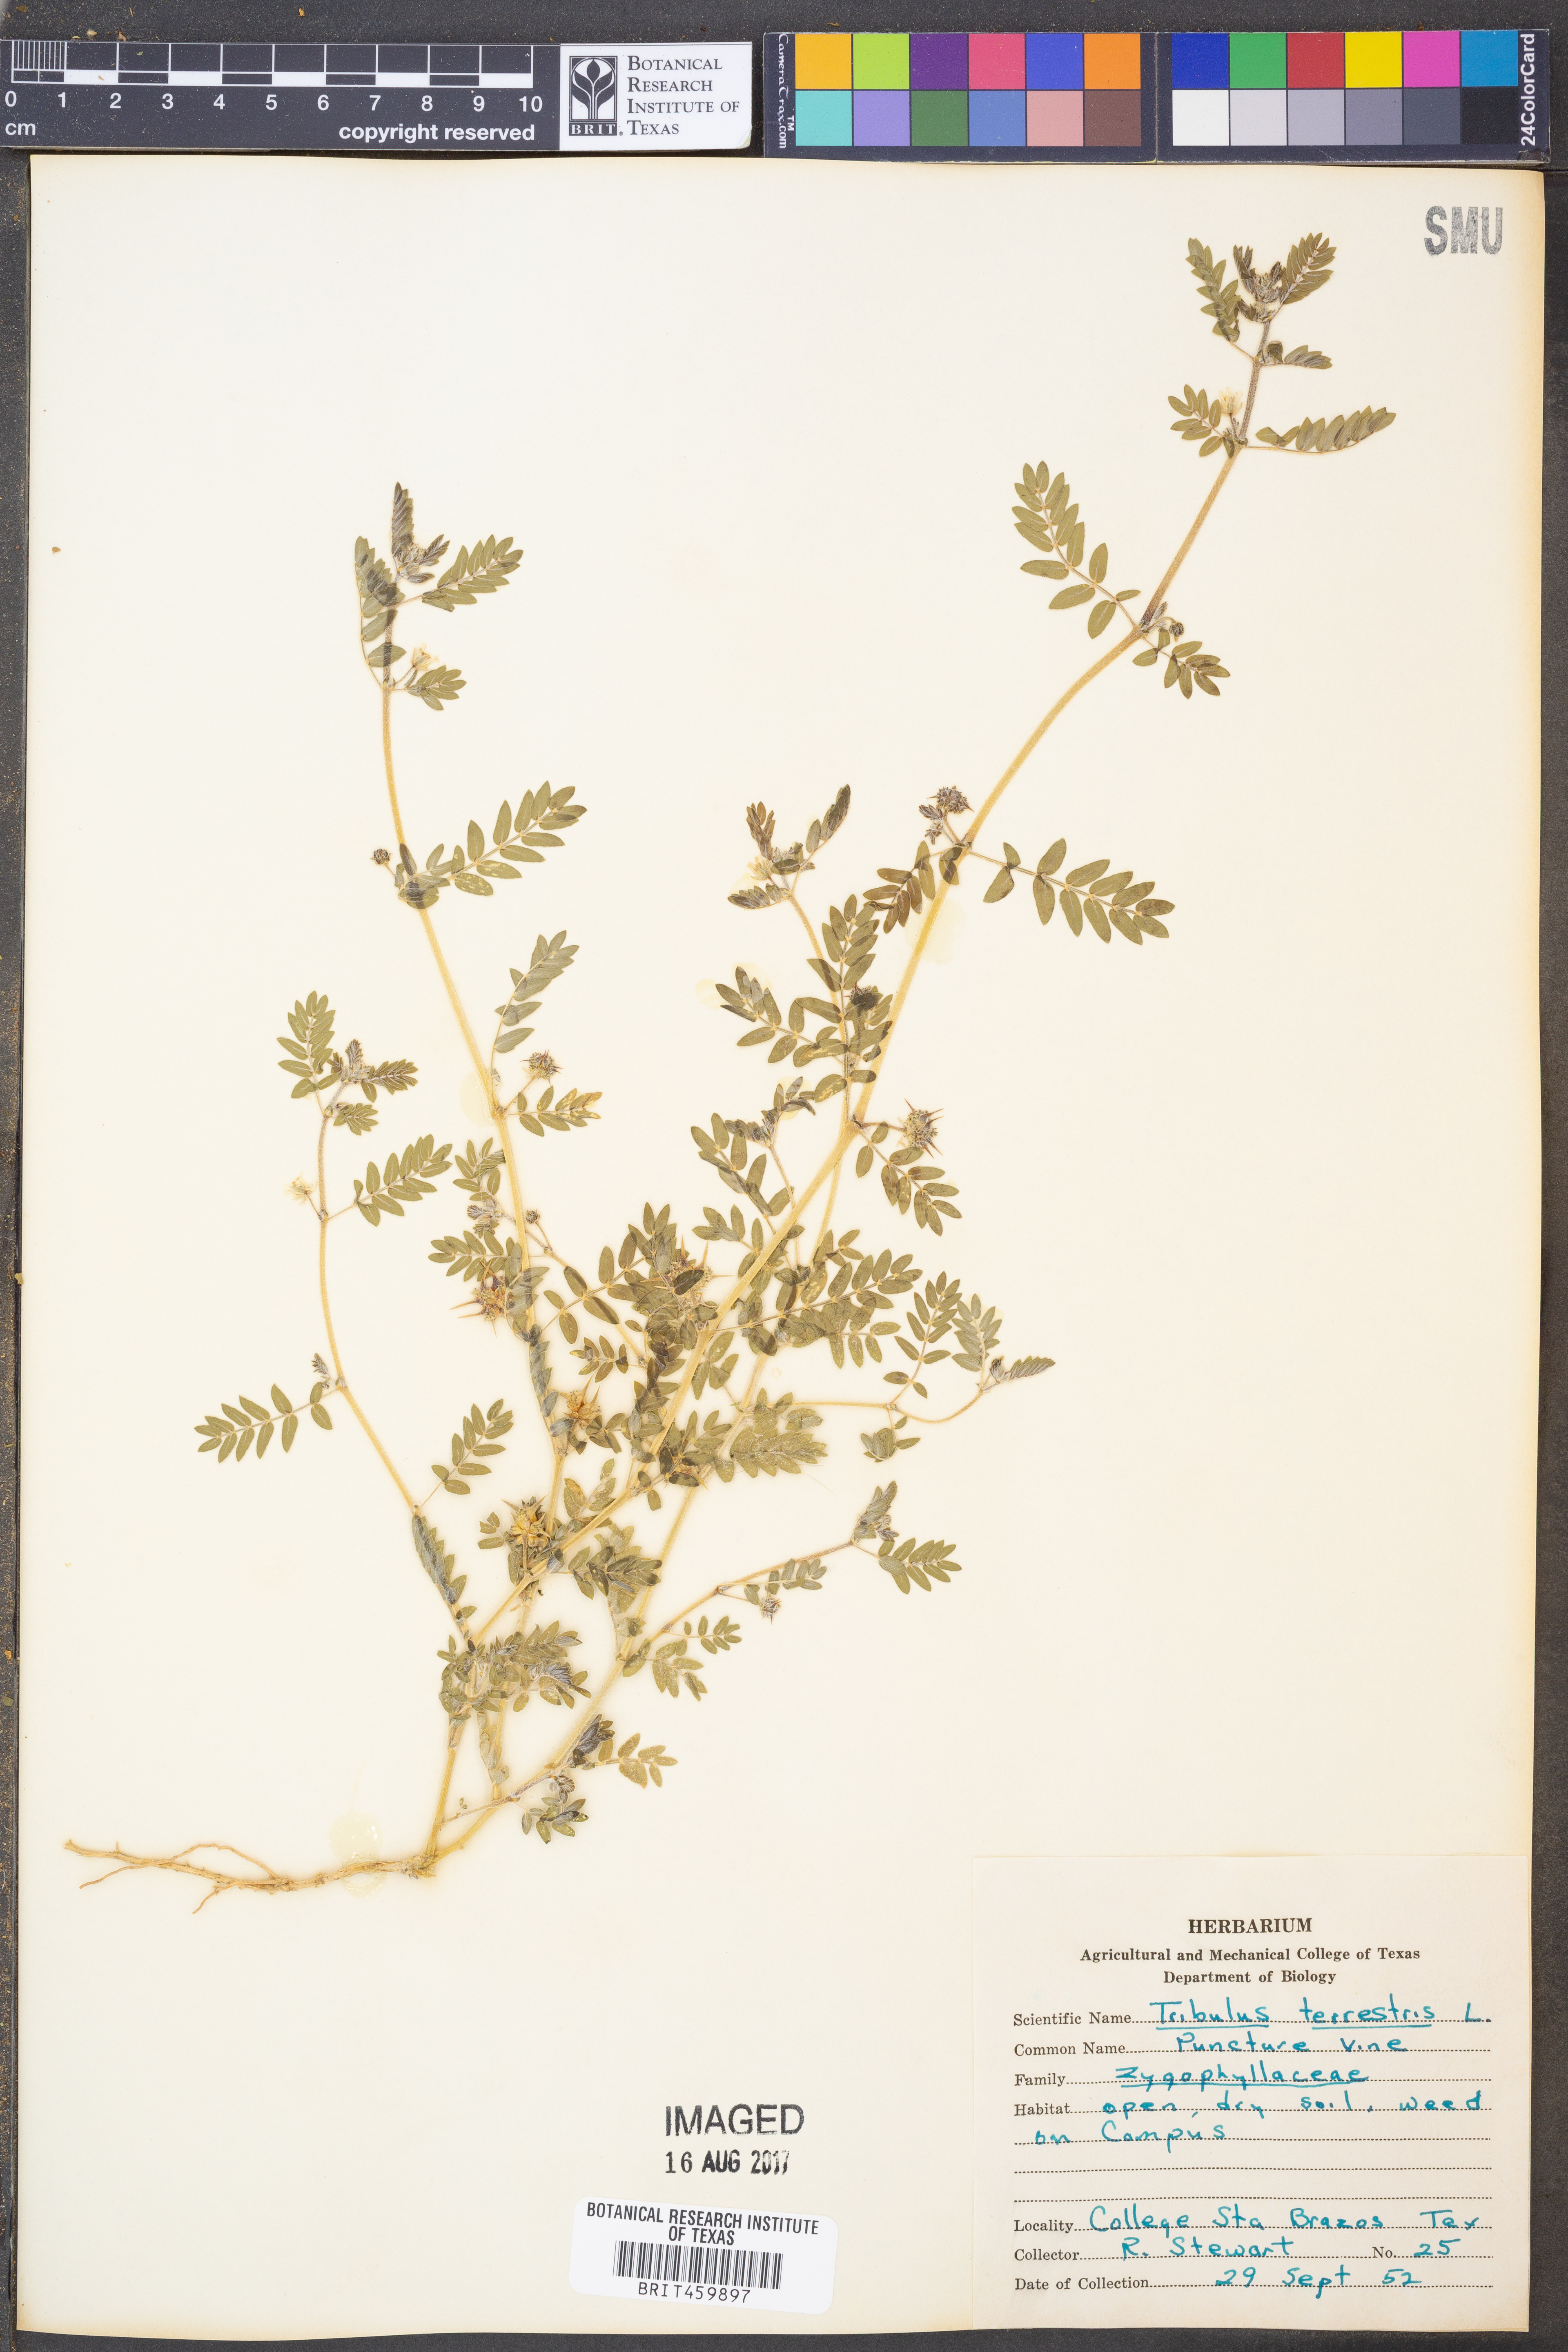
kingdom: Plantae
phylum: Tracheophyta
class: Magnoliopsida
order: Zygophyllales
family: Zygophyllaceae
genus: Tribulus
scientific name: Tribulus terrestris
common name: Puncturevine
